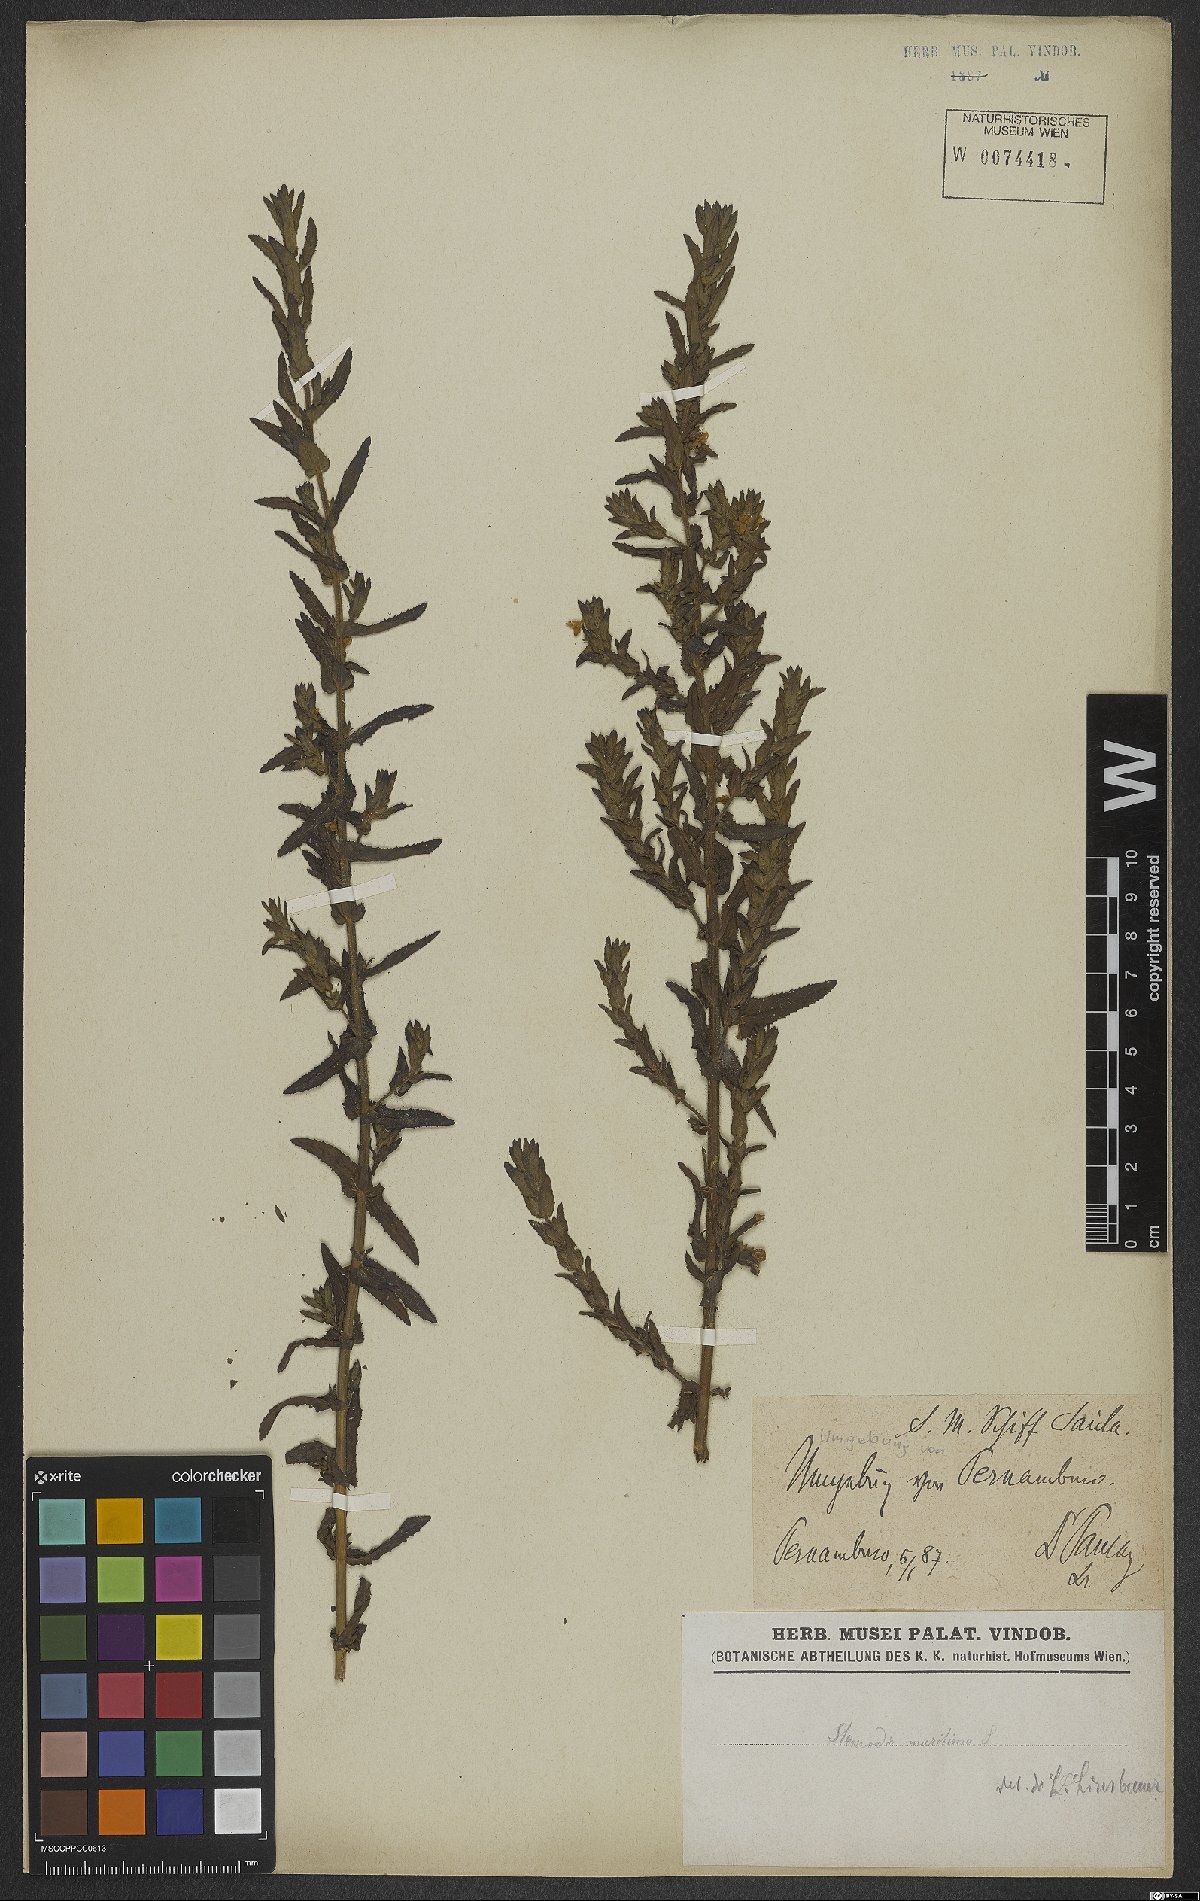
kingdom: Plantae
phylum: Tracheophyta
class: Magnoliopsida
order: Lamiales
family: Plantaginaceae
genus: Stemodia
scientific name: Stemodia maritima
